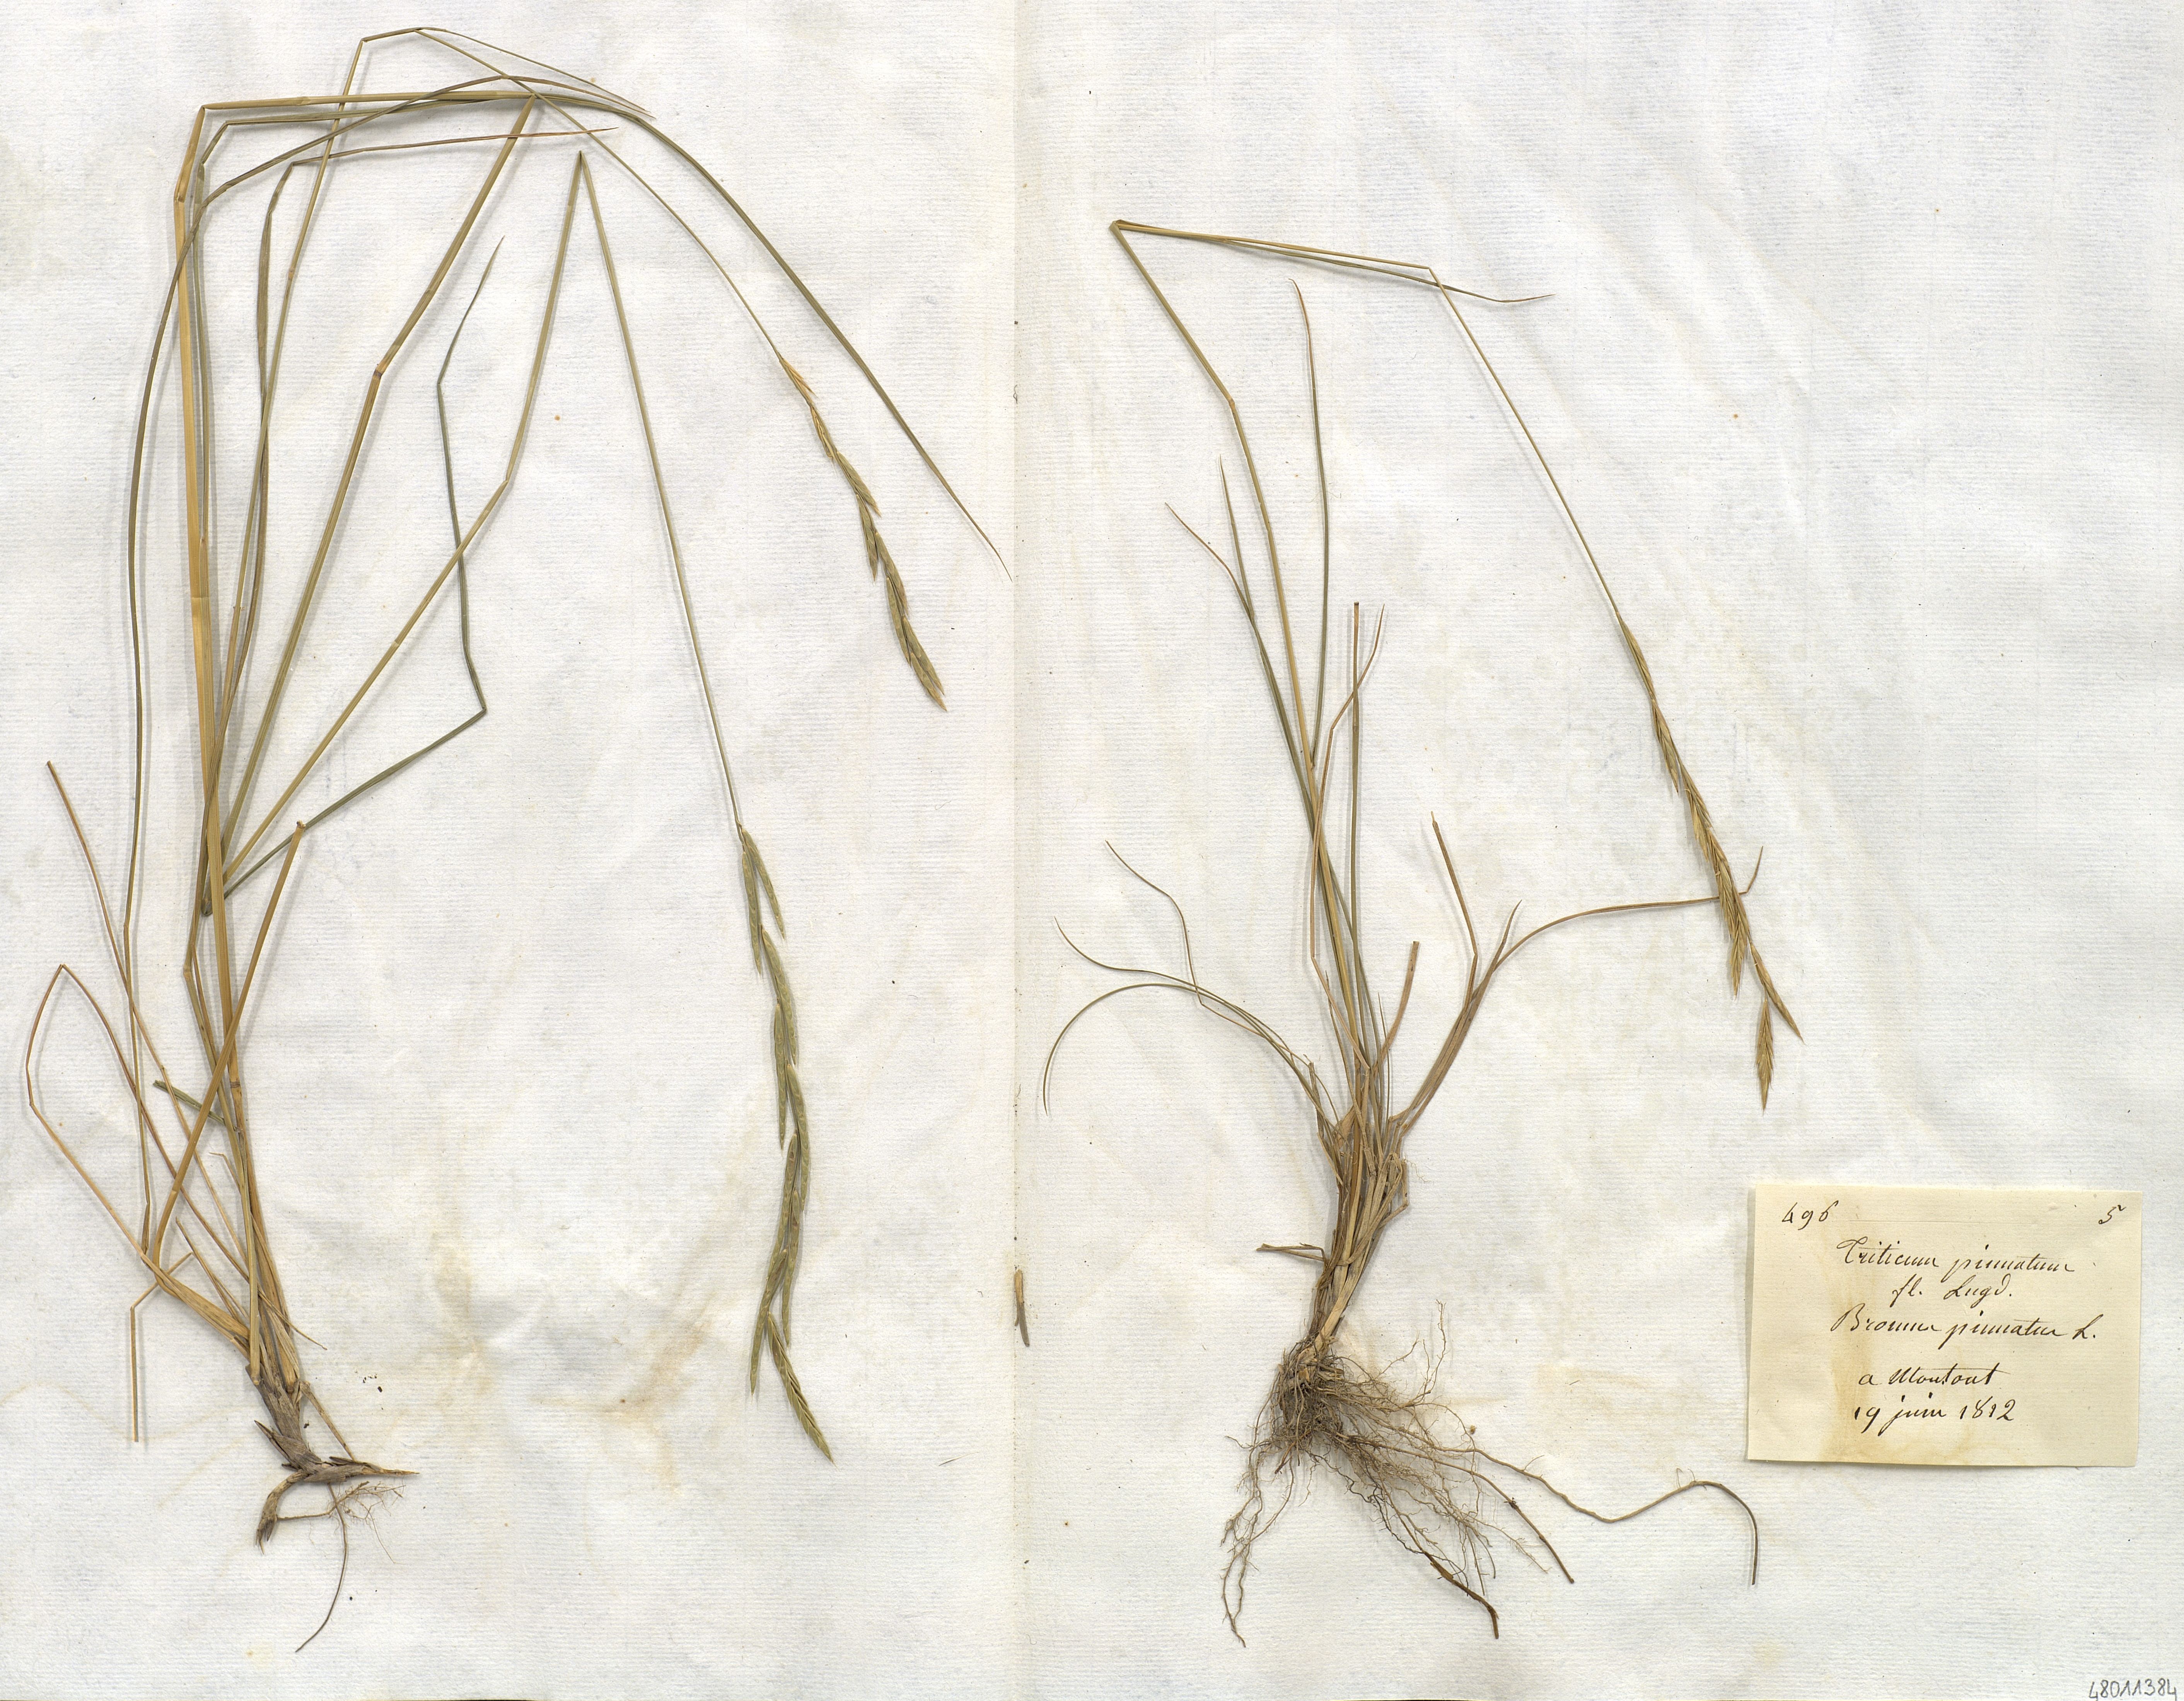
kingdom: Plantae
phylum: Tracheophyta
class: Liliopsida
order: Poales
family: Poaceae
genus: Brachypodium
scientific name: Brachypodium pinnatum
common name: Tor grass
